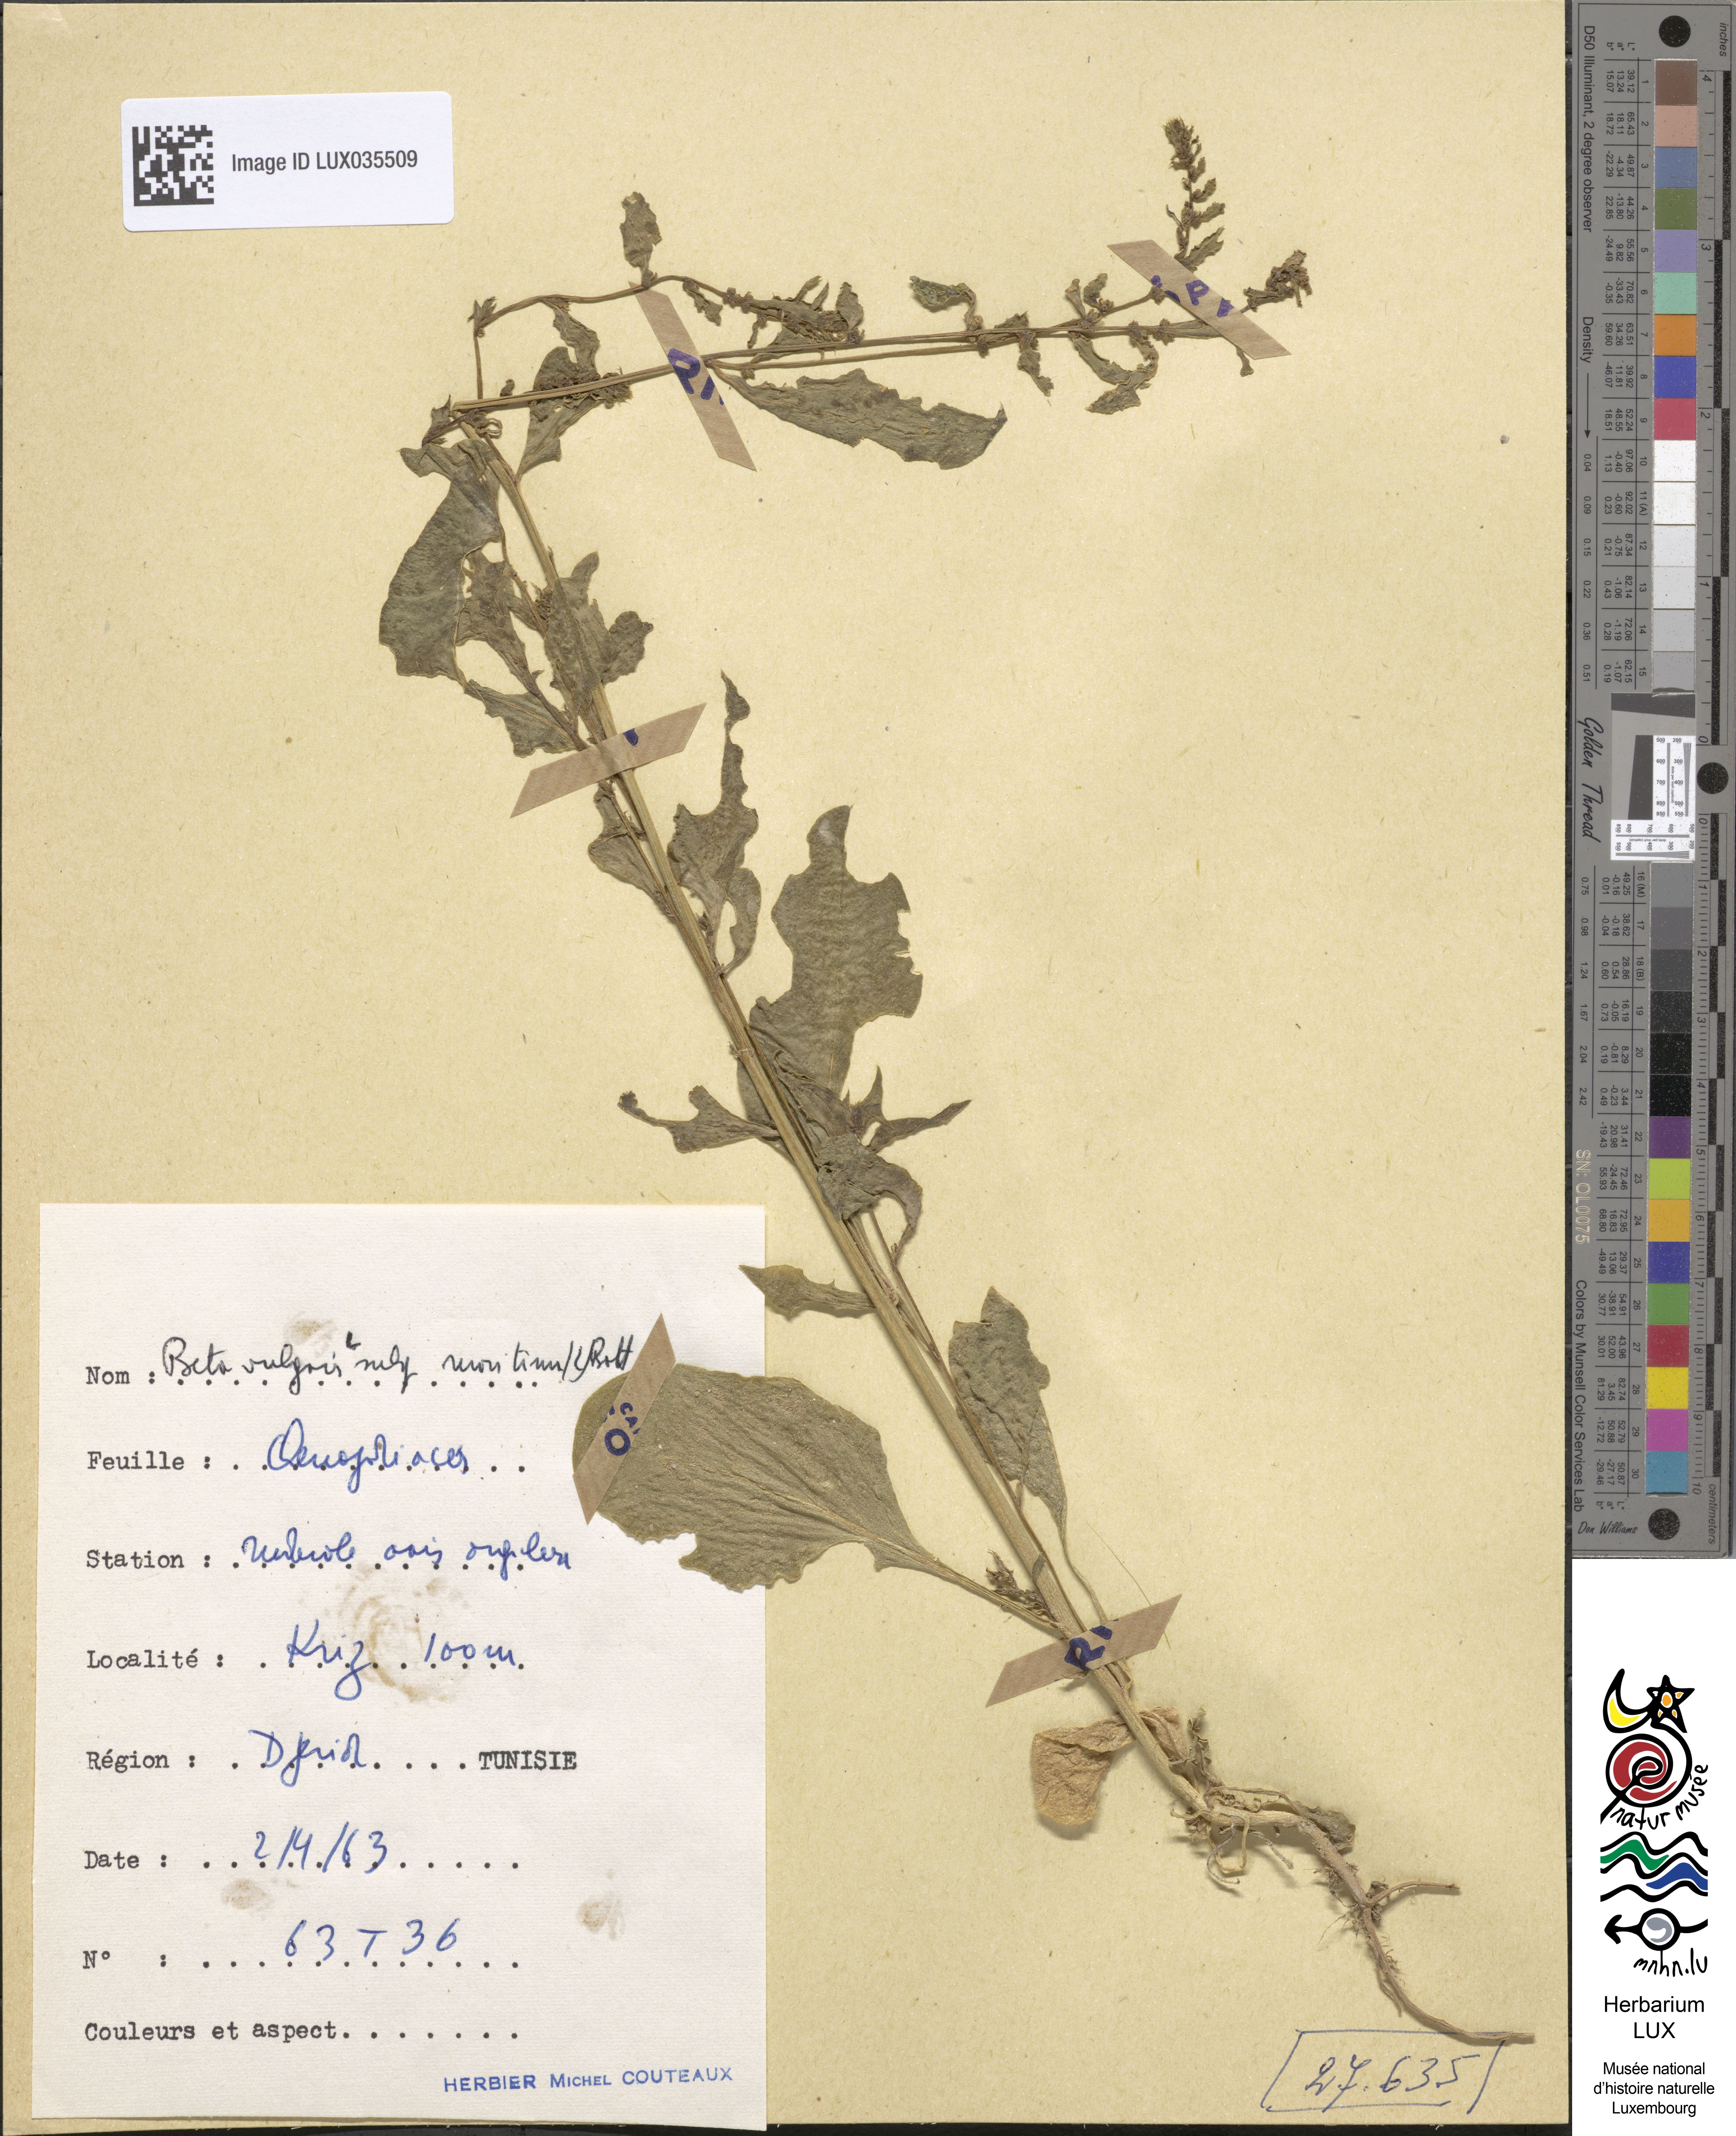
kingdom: Plantae
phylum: Tracheophyta
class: Magnoliopsida
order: Caryophyllales
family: Amaranthaceae
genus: Beta
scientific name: Beta maritima
